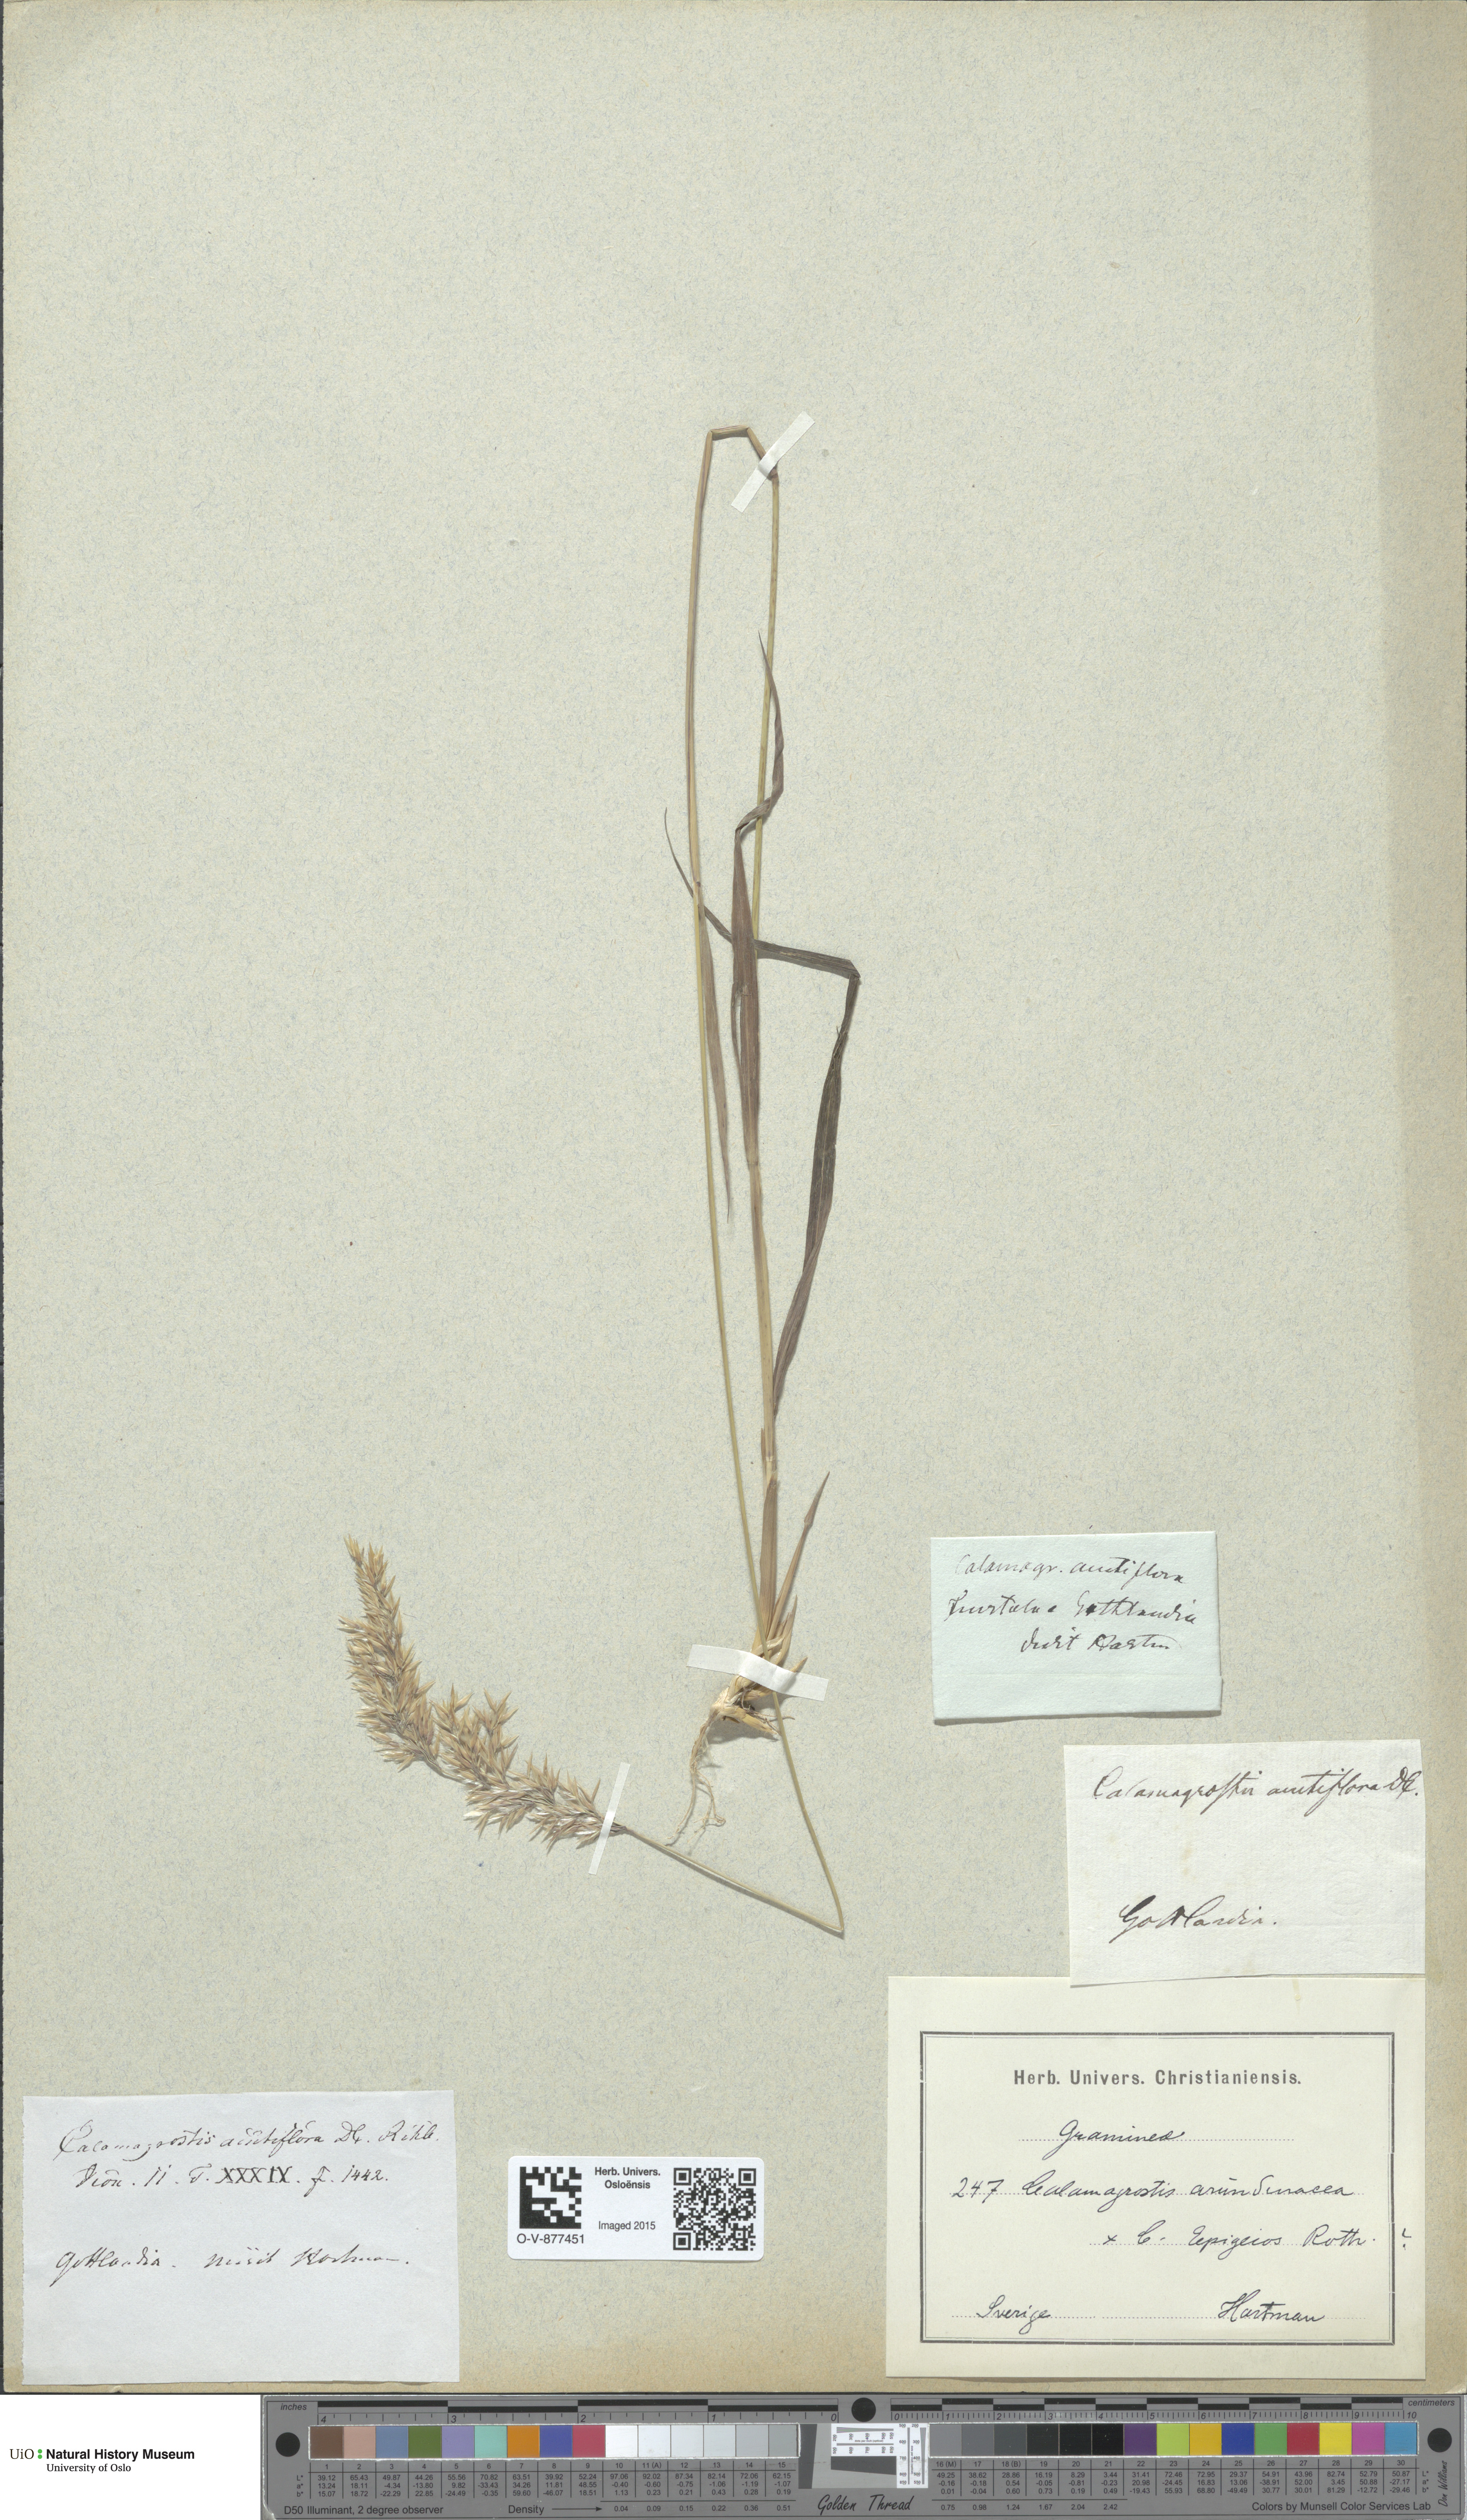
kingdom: Plantae
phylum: Tracheophyta
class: Liliopsida
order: Poales
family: Poaceae
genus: Calamagrostis
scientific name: Calamagrostis
